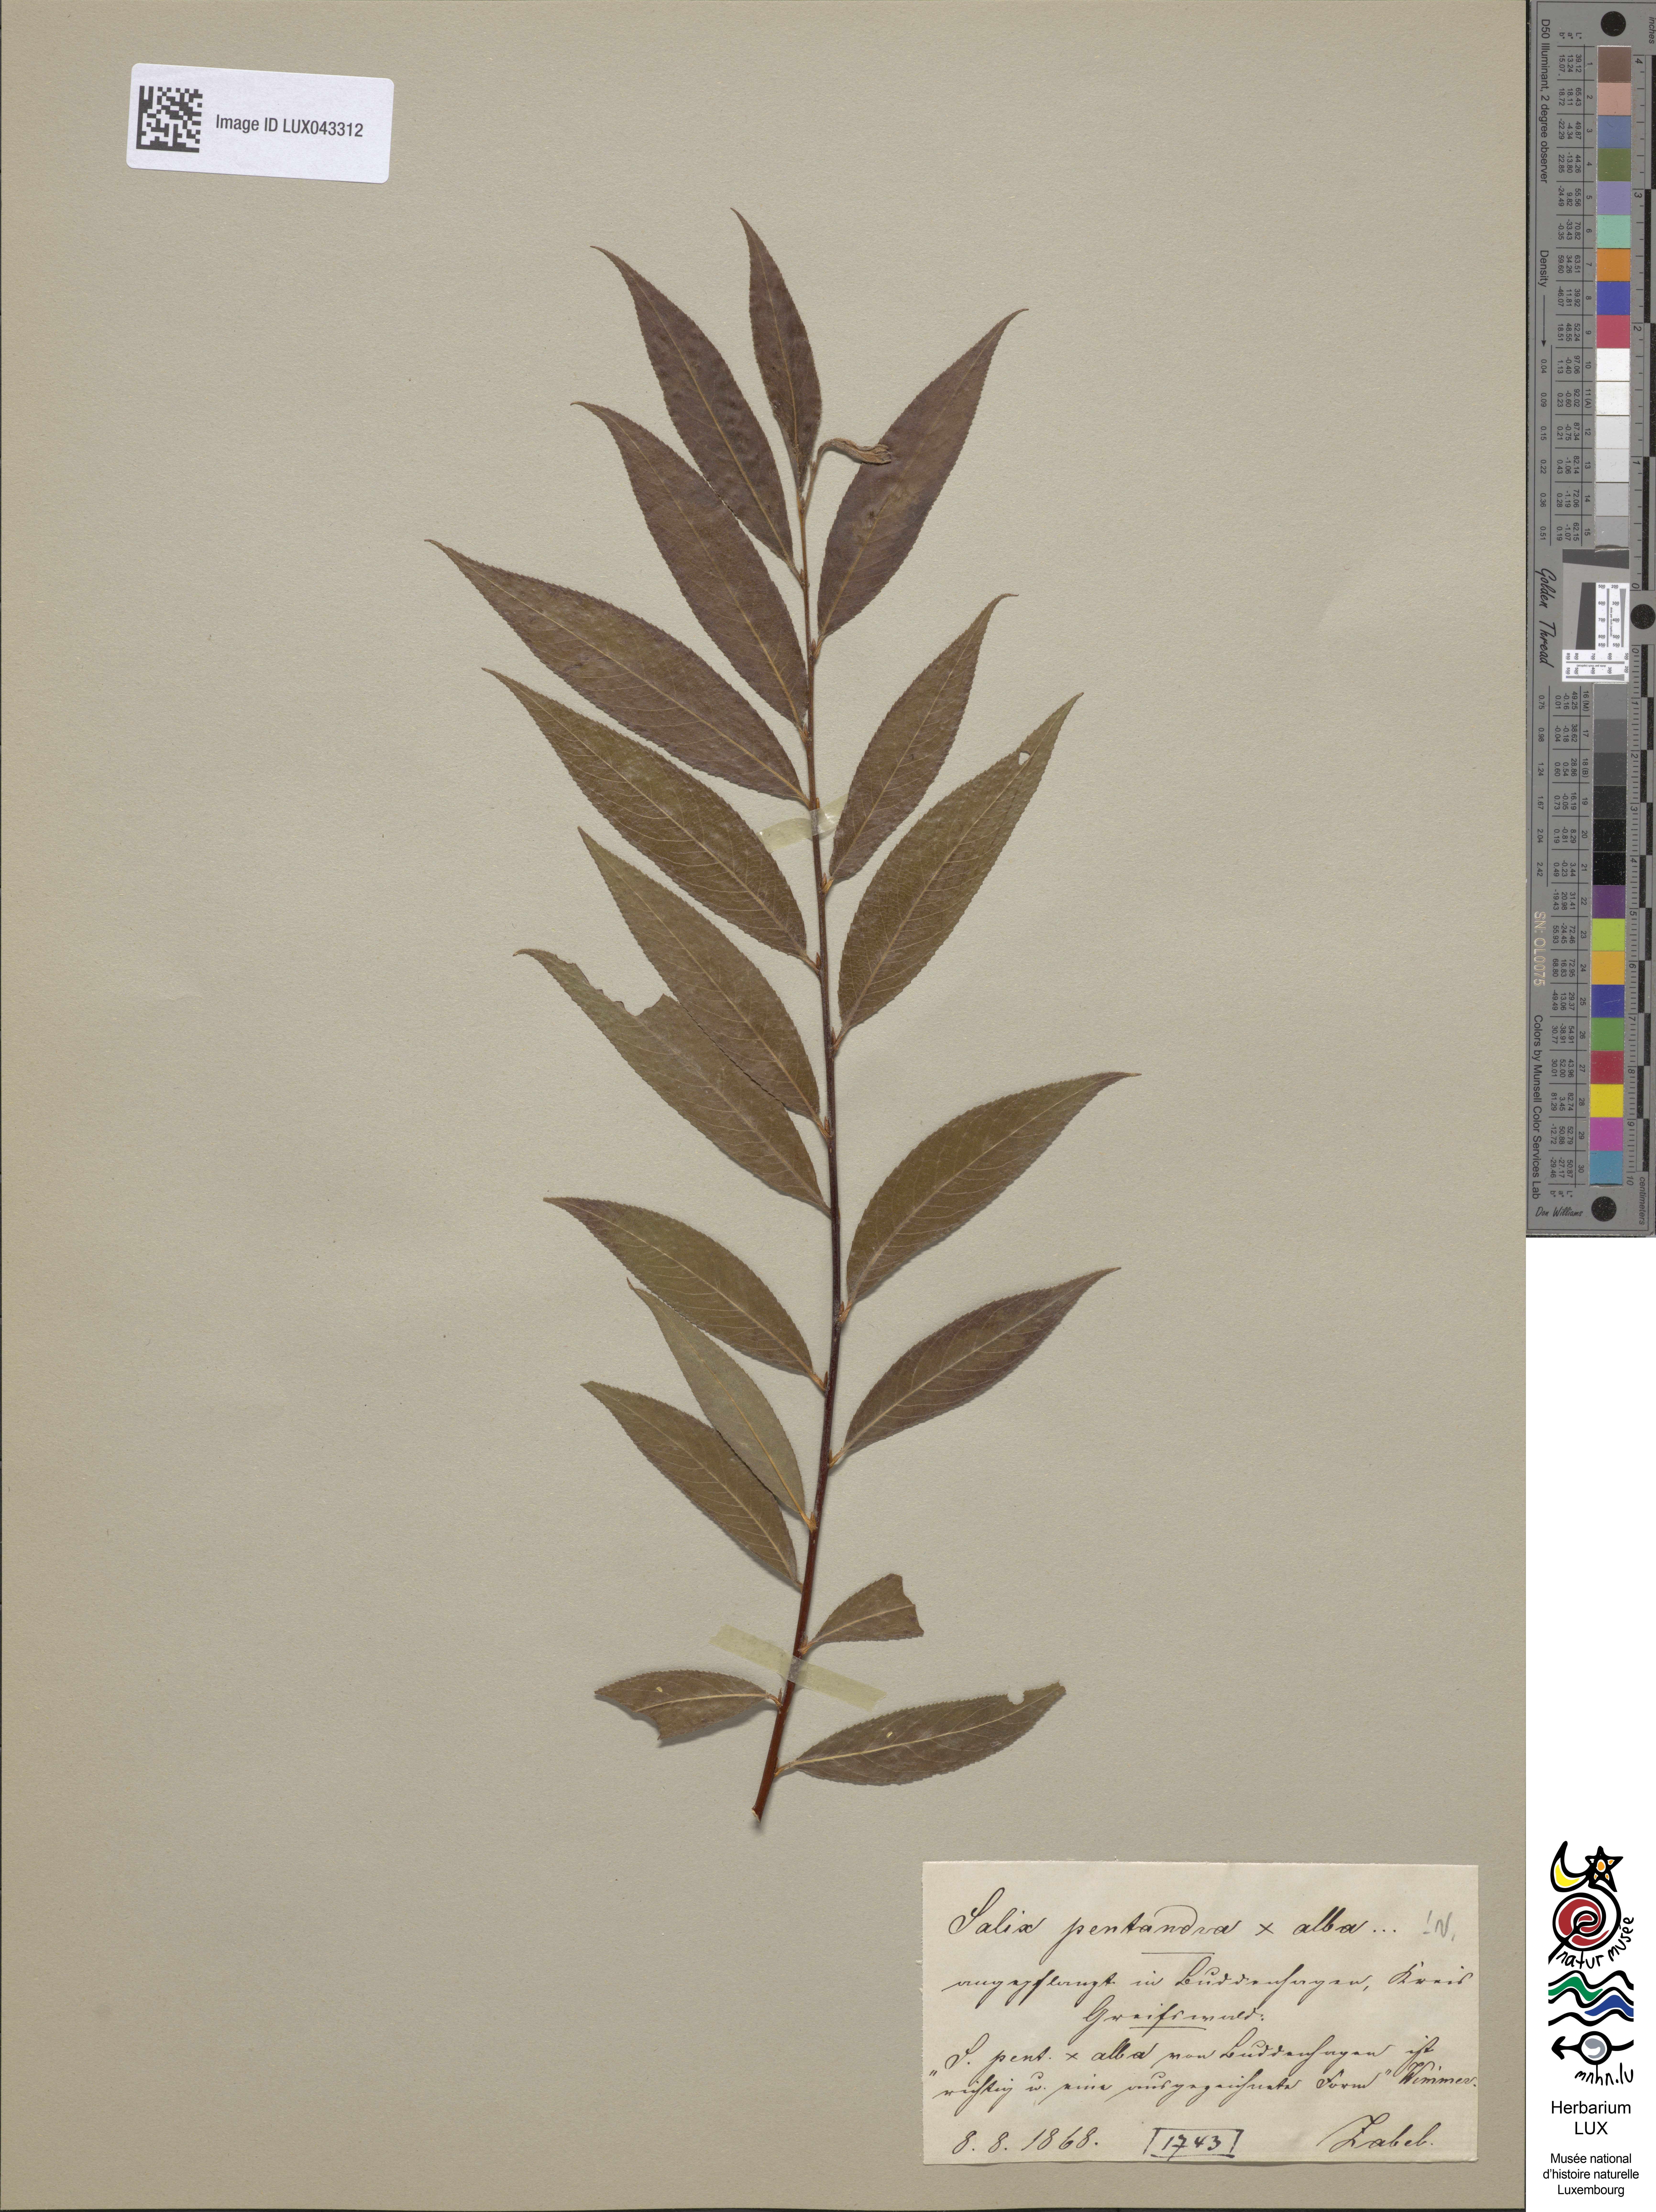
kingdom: Plantae
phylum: Tracheophyta
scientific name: Tracheophyta
